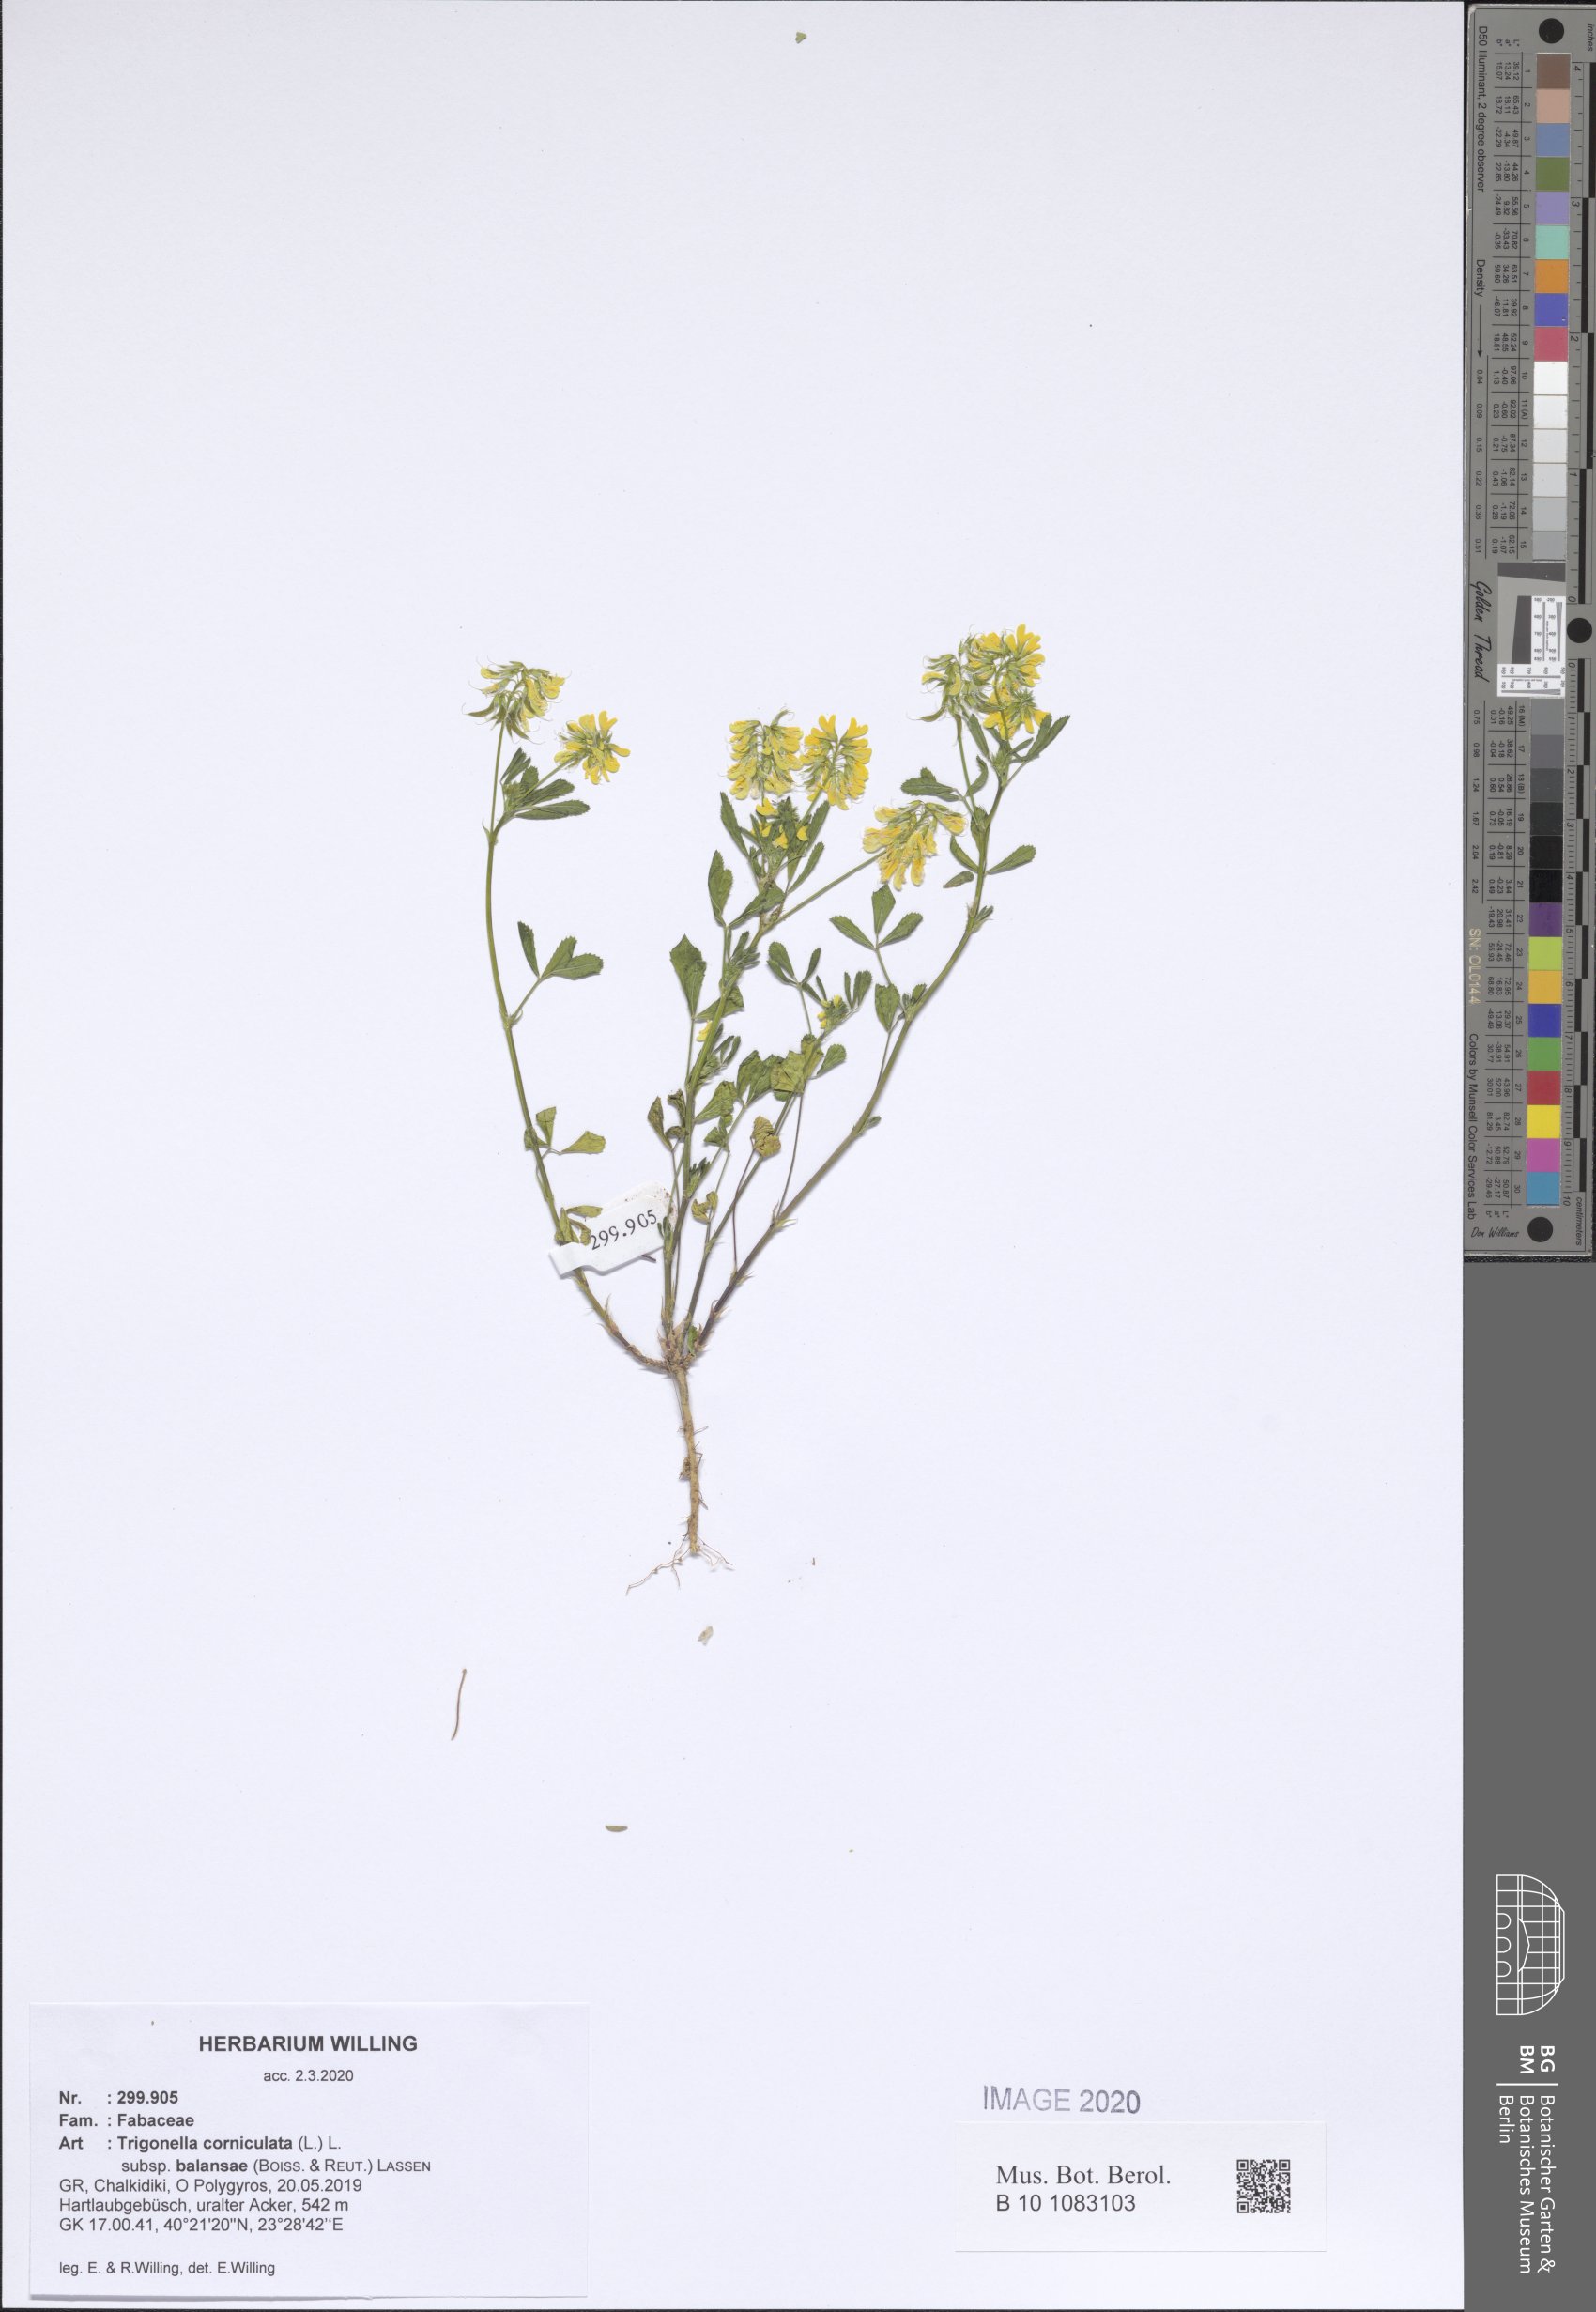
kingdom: Plantae
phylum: Tracheophyta
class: Magnoliopsida
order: Fabales
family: Fabaceae
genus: Trigonella
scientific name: Trigonella balansae
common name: Sickle-fruited fenugreek
